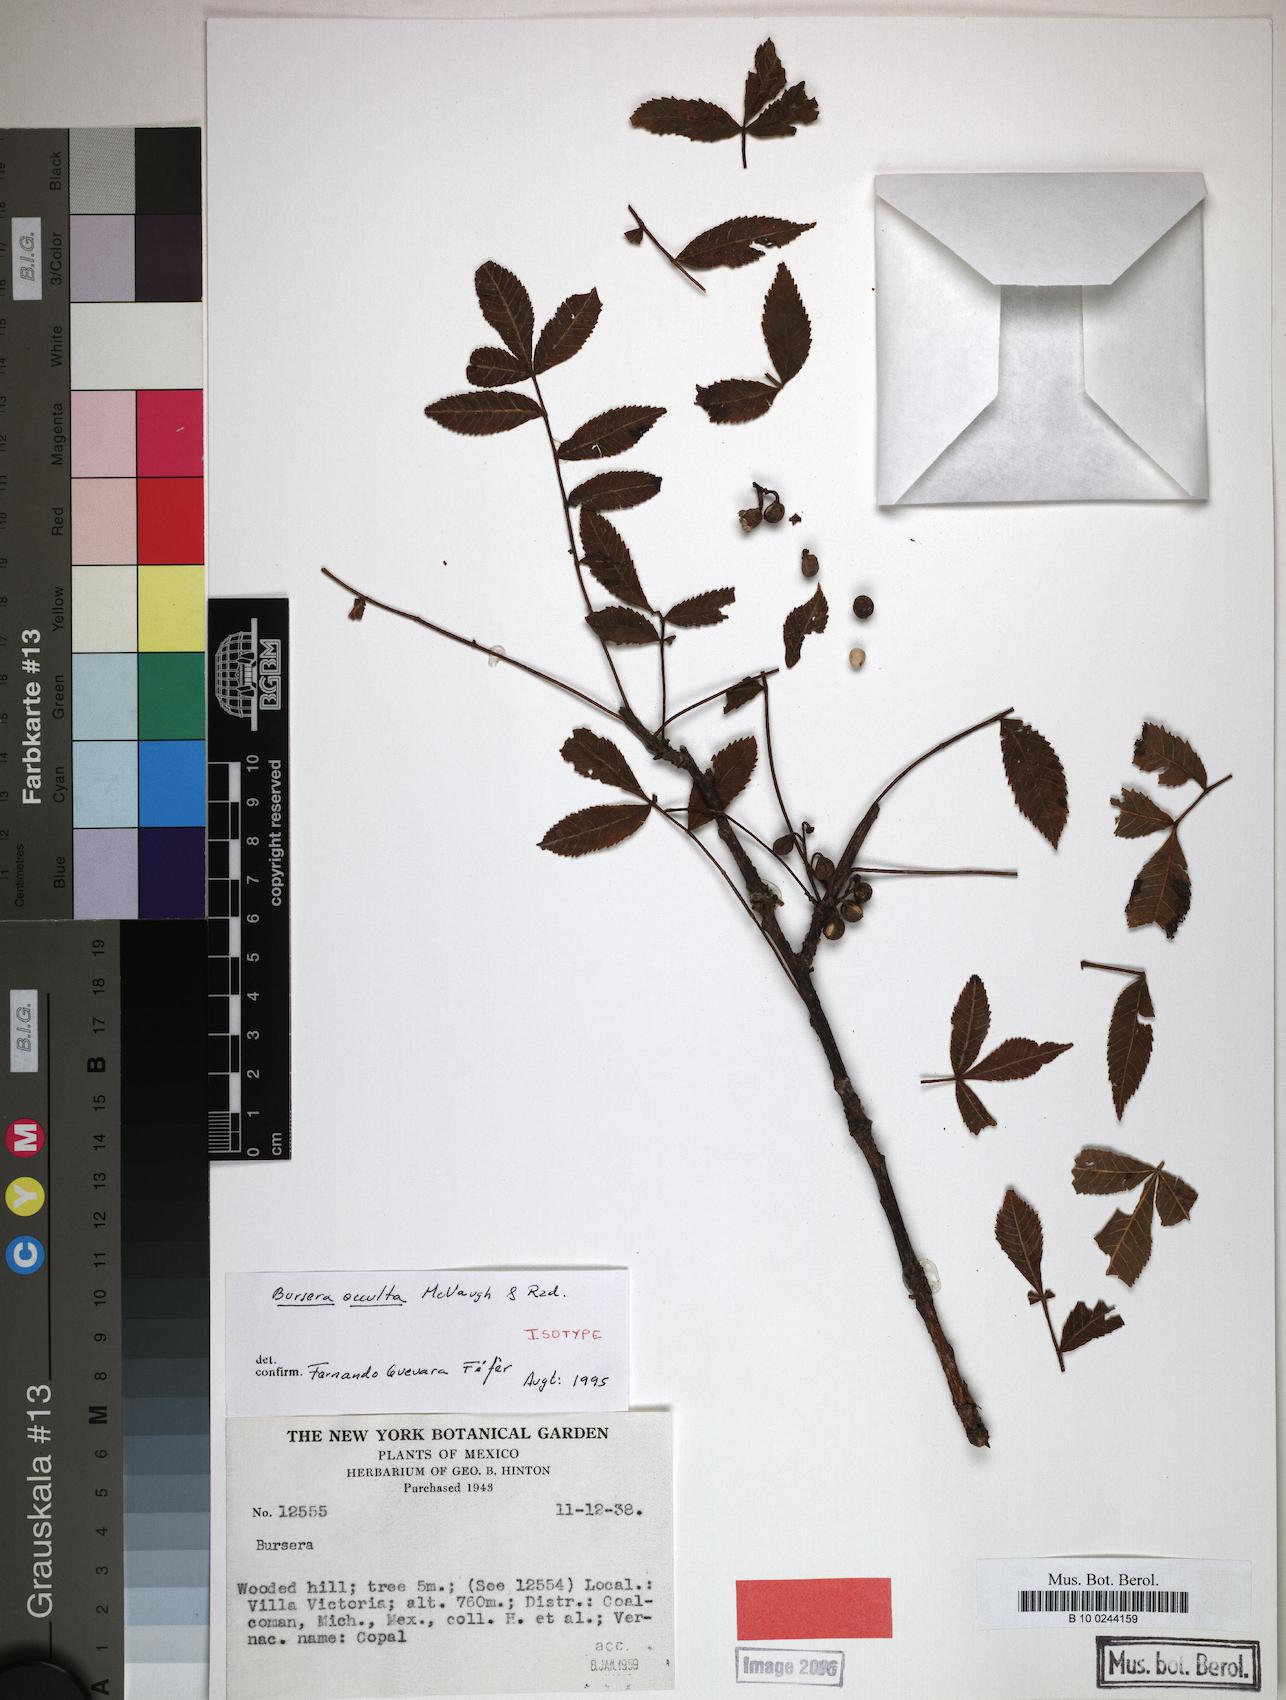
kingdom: Plantae
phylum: Tracheophyta
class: Magnoliopsida
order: Sapindales
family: Burseraceae
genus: Bursera
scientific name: Bursera occulta
